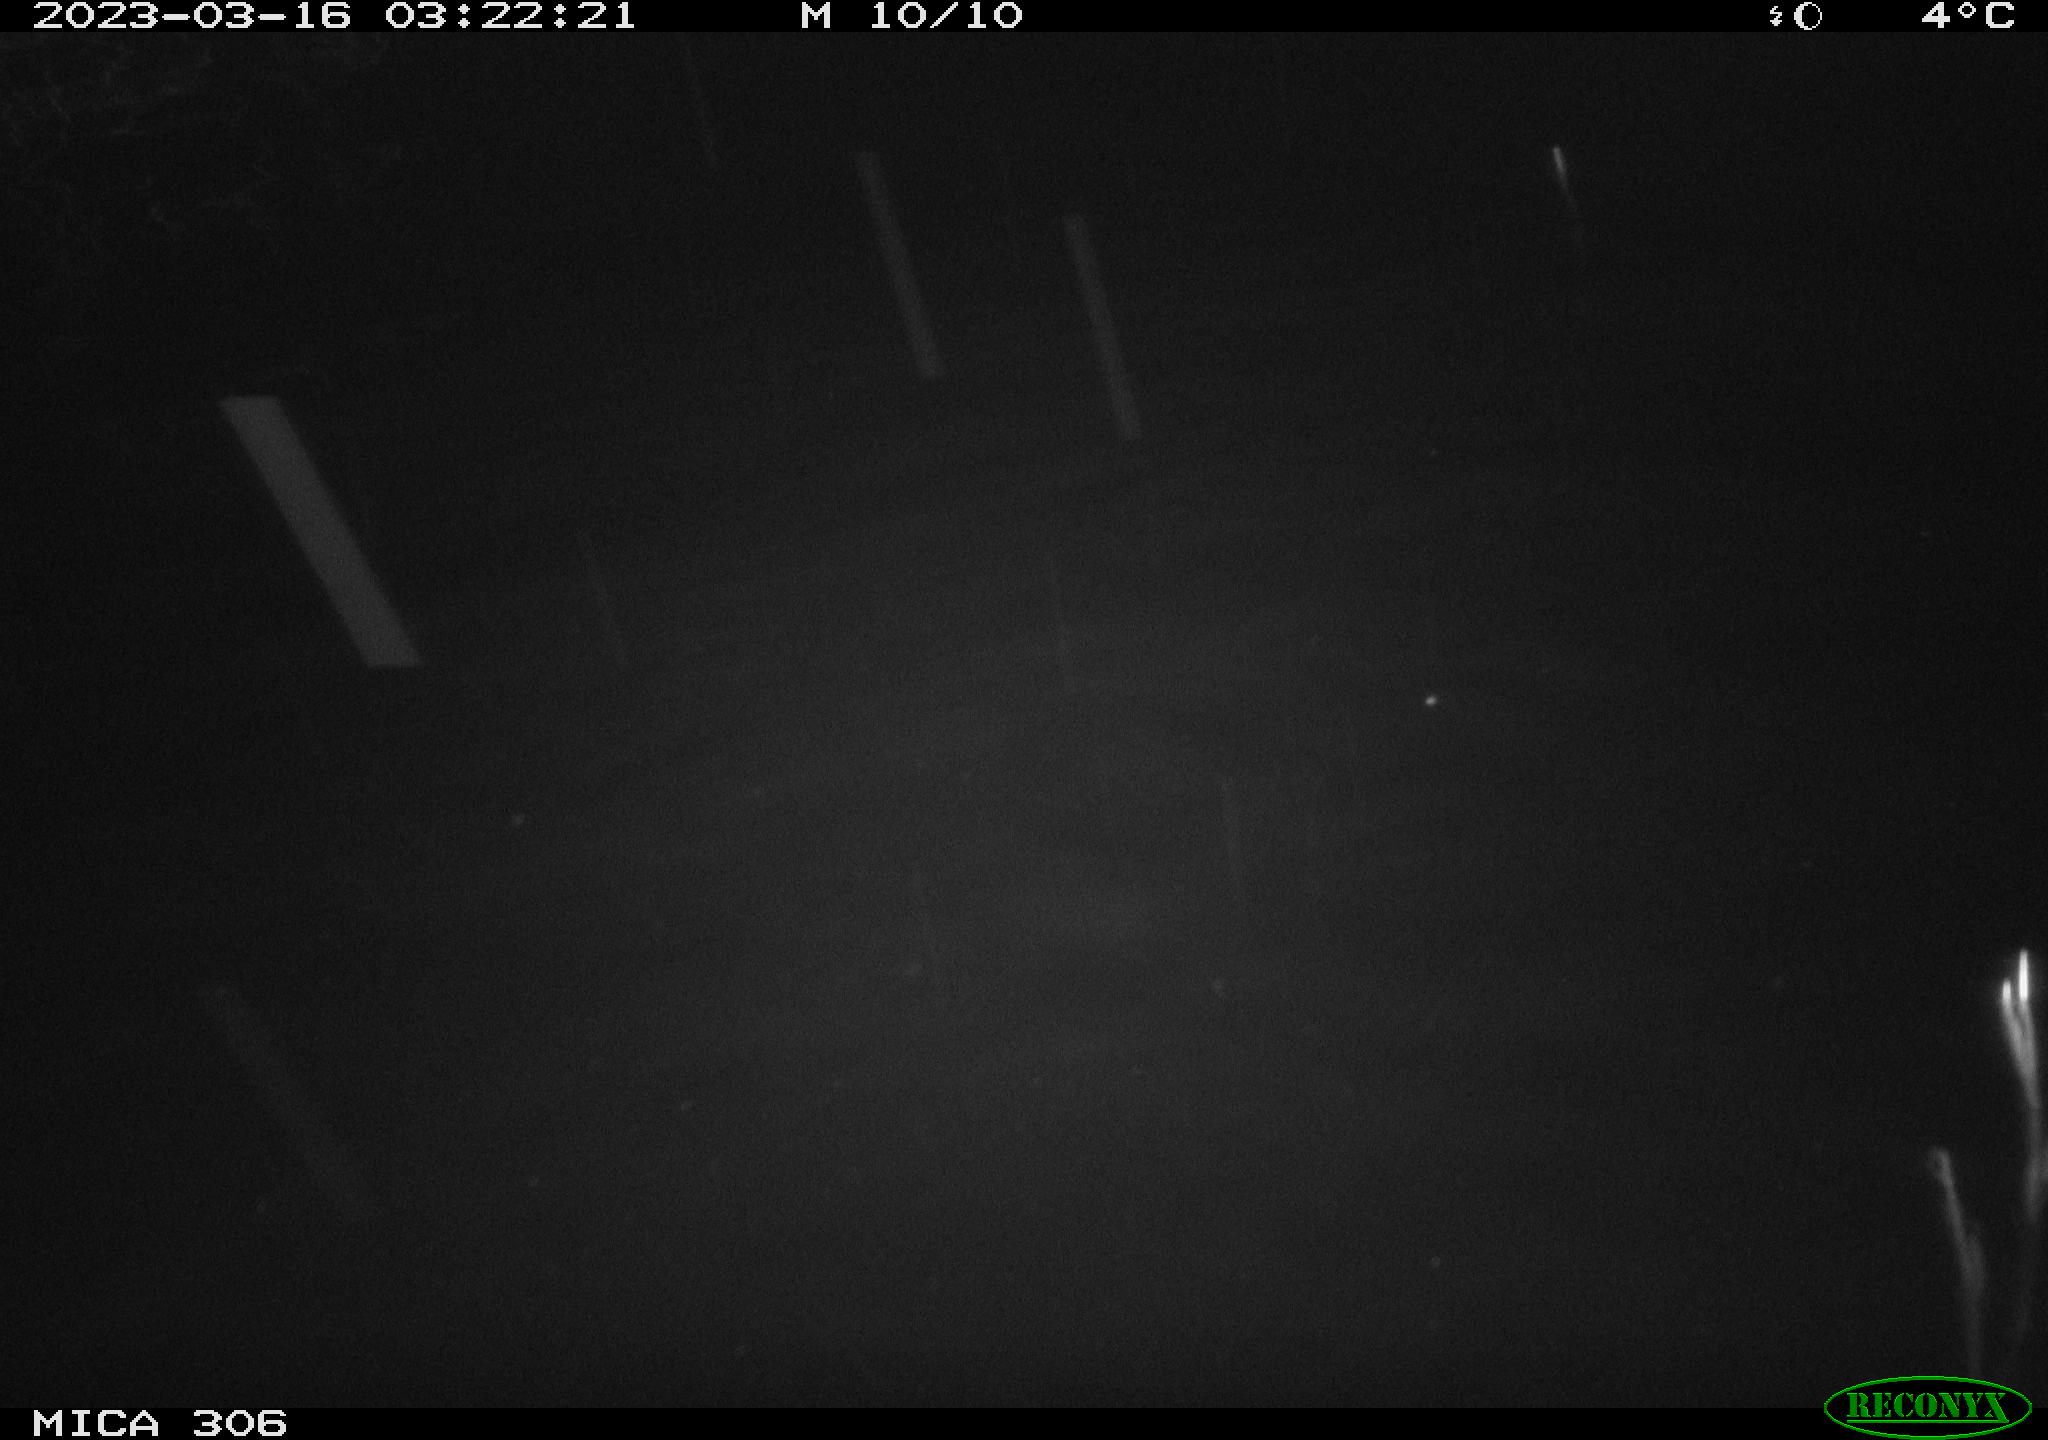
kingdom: Animalia
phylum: Chordata
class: Mammalia
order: Rodentia
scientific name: Rodentia
